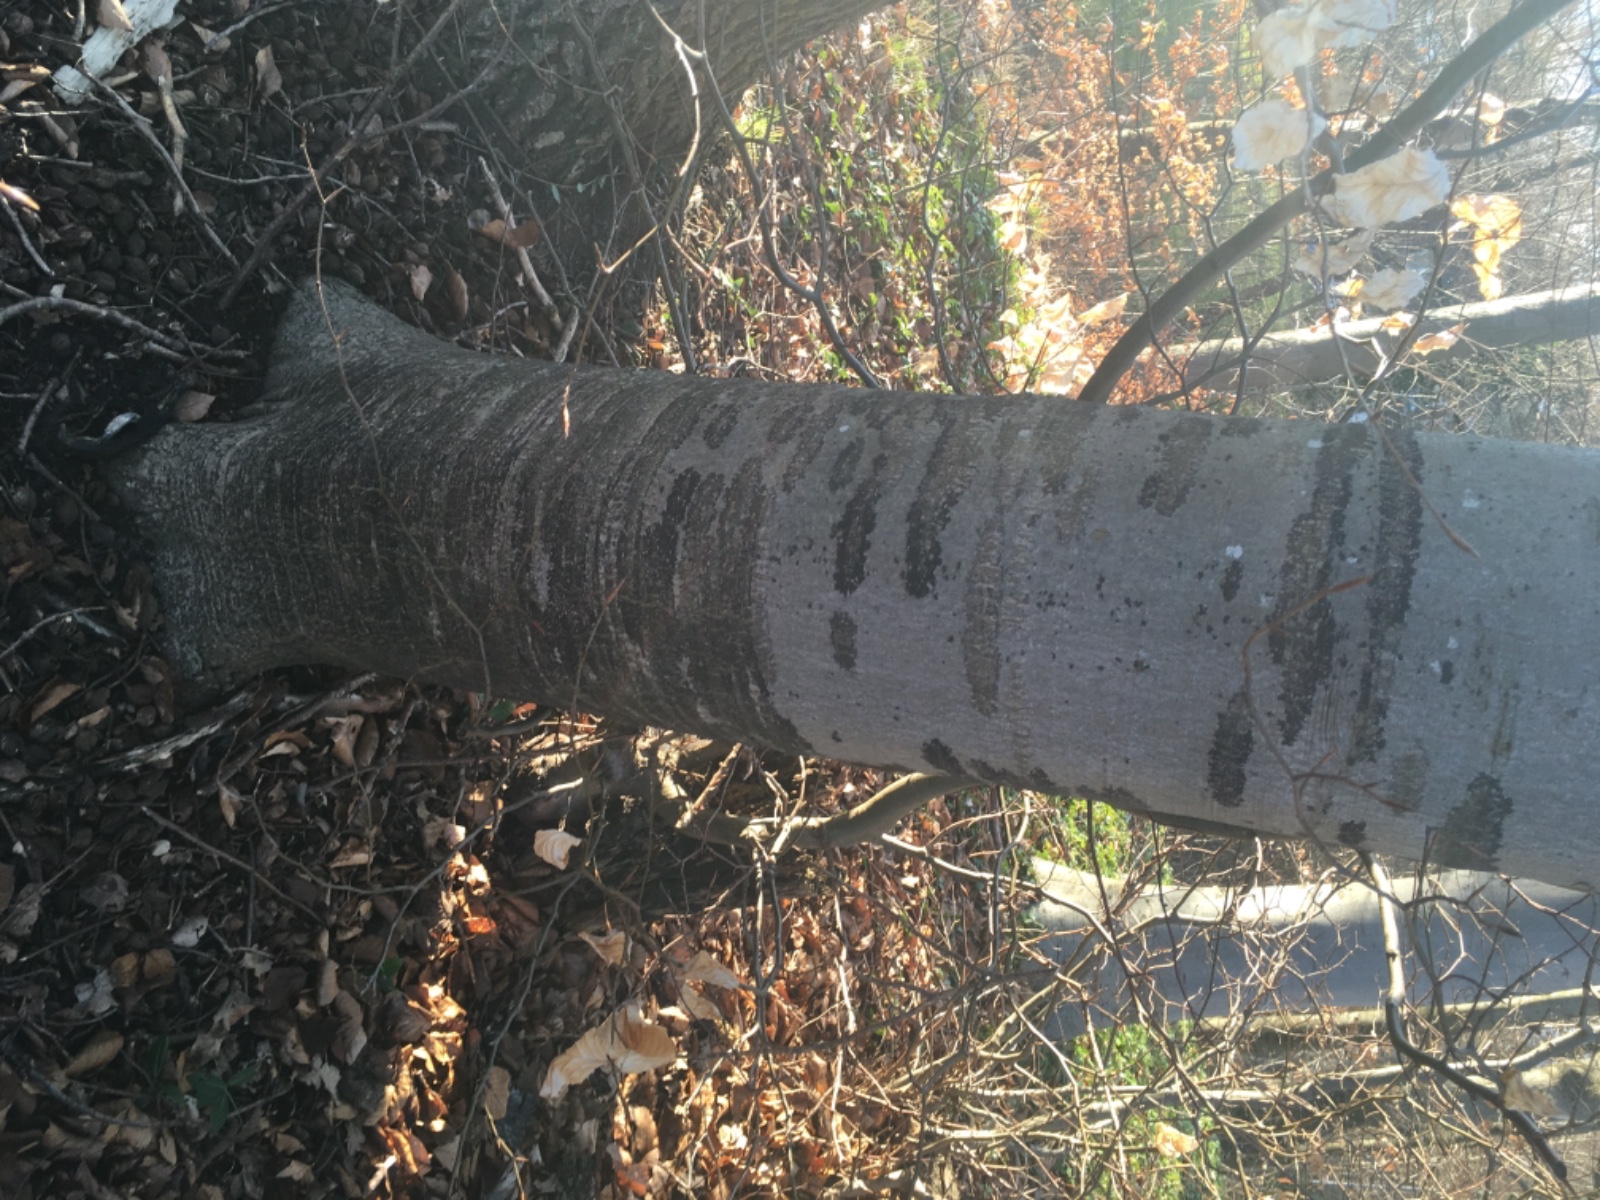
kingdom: Fungi
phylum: Ascomycota
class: Leotiomycetes
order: Rhytismatales
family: Ascodichaenaceae
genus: Ascodichaena
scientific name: Ascodichaena rugosa
